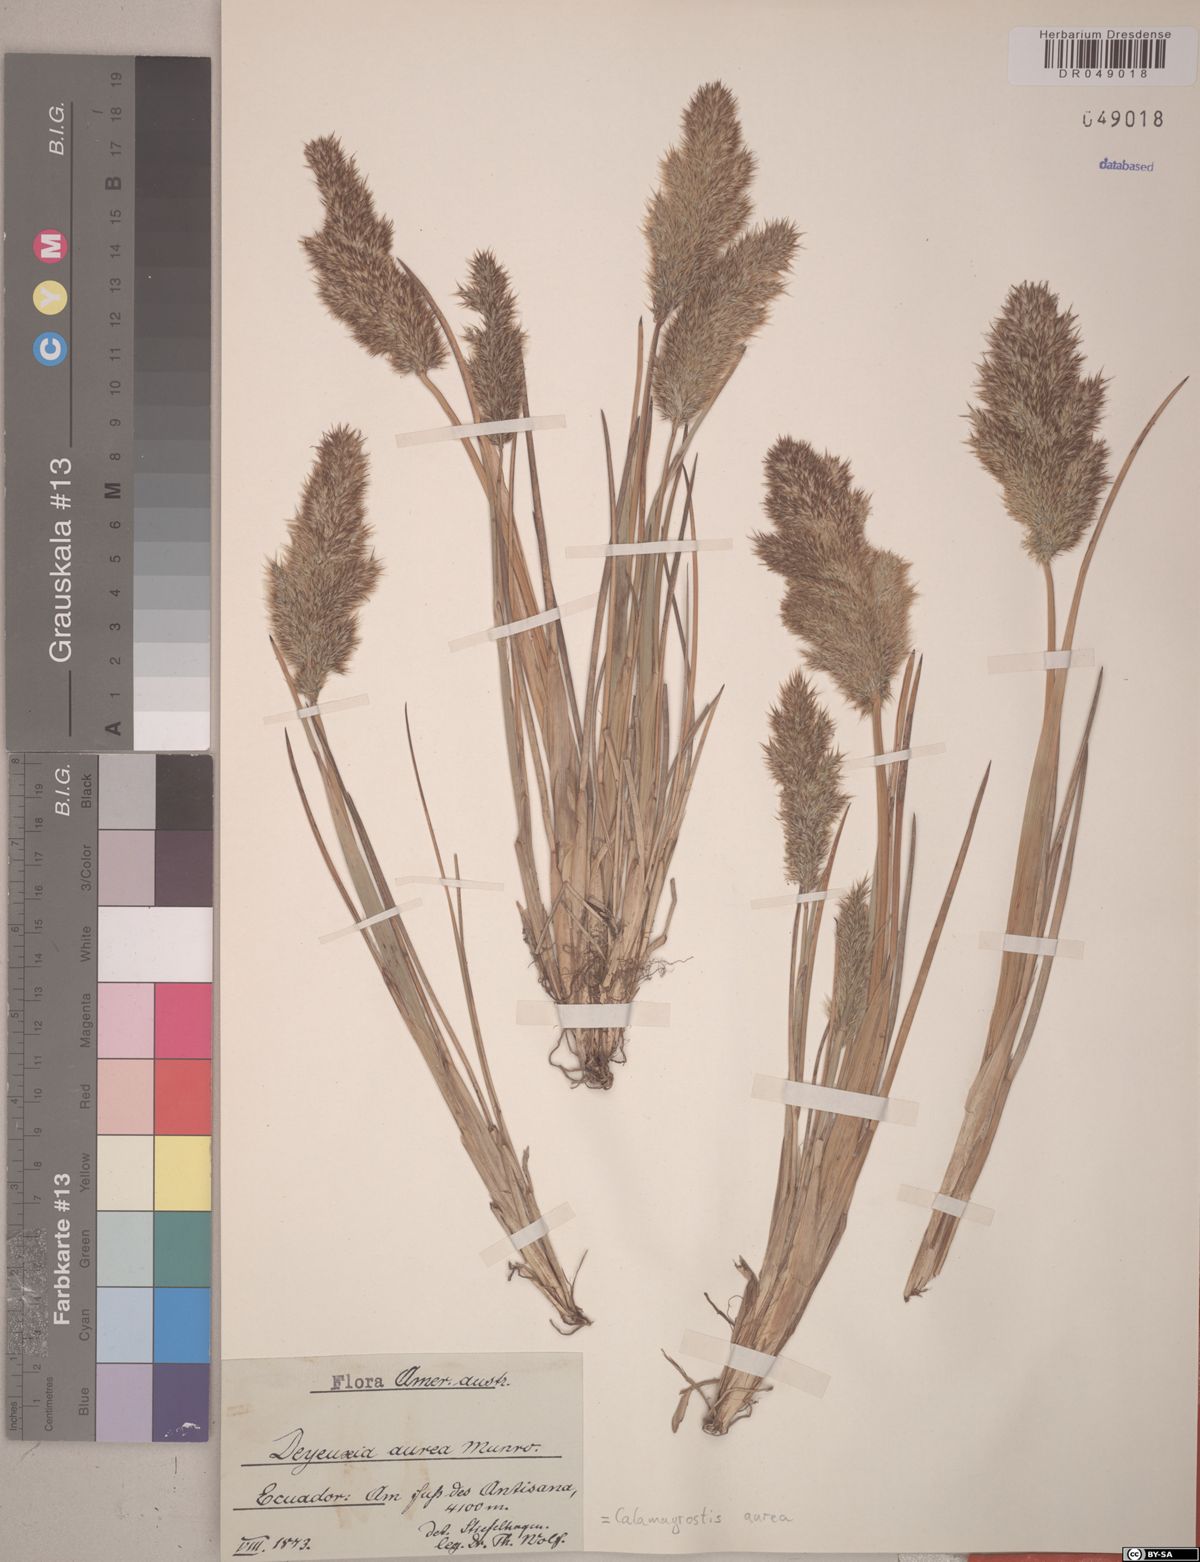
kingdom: Plantae
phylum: Tracheophyta
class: Liliopsida
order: Poales
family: Poaceae
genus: Deschampsia
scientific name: Deschampsia aurea
